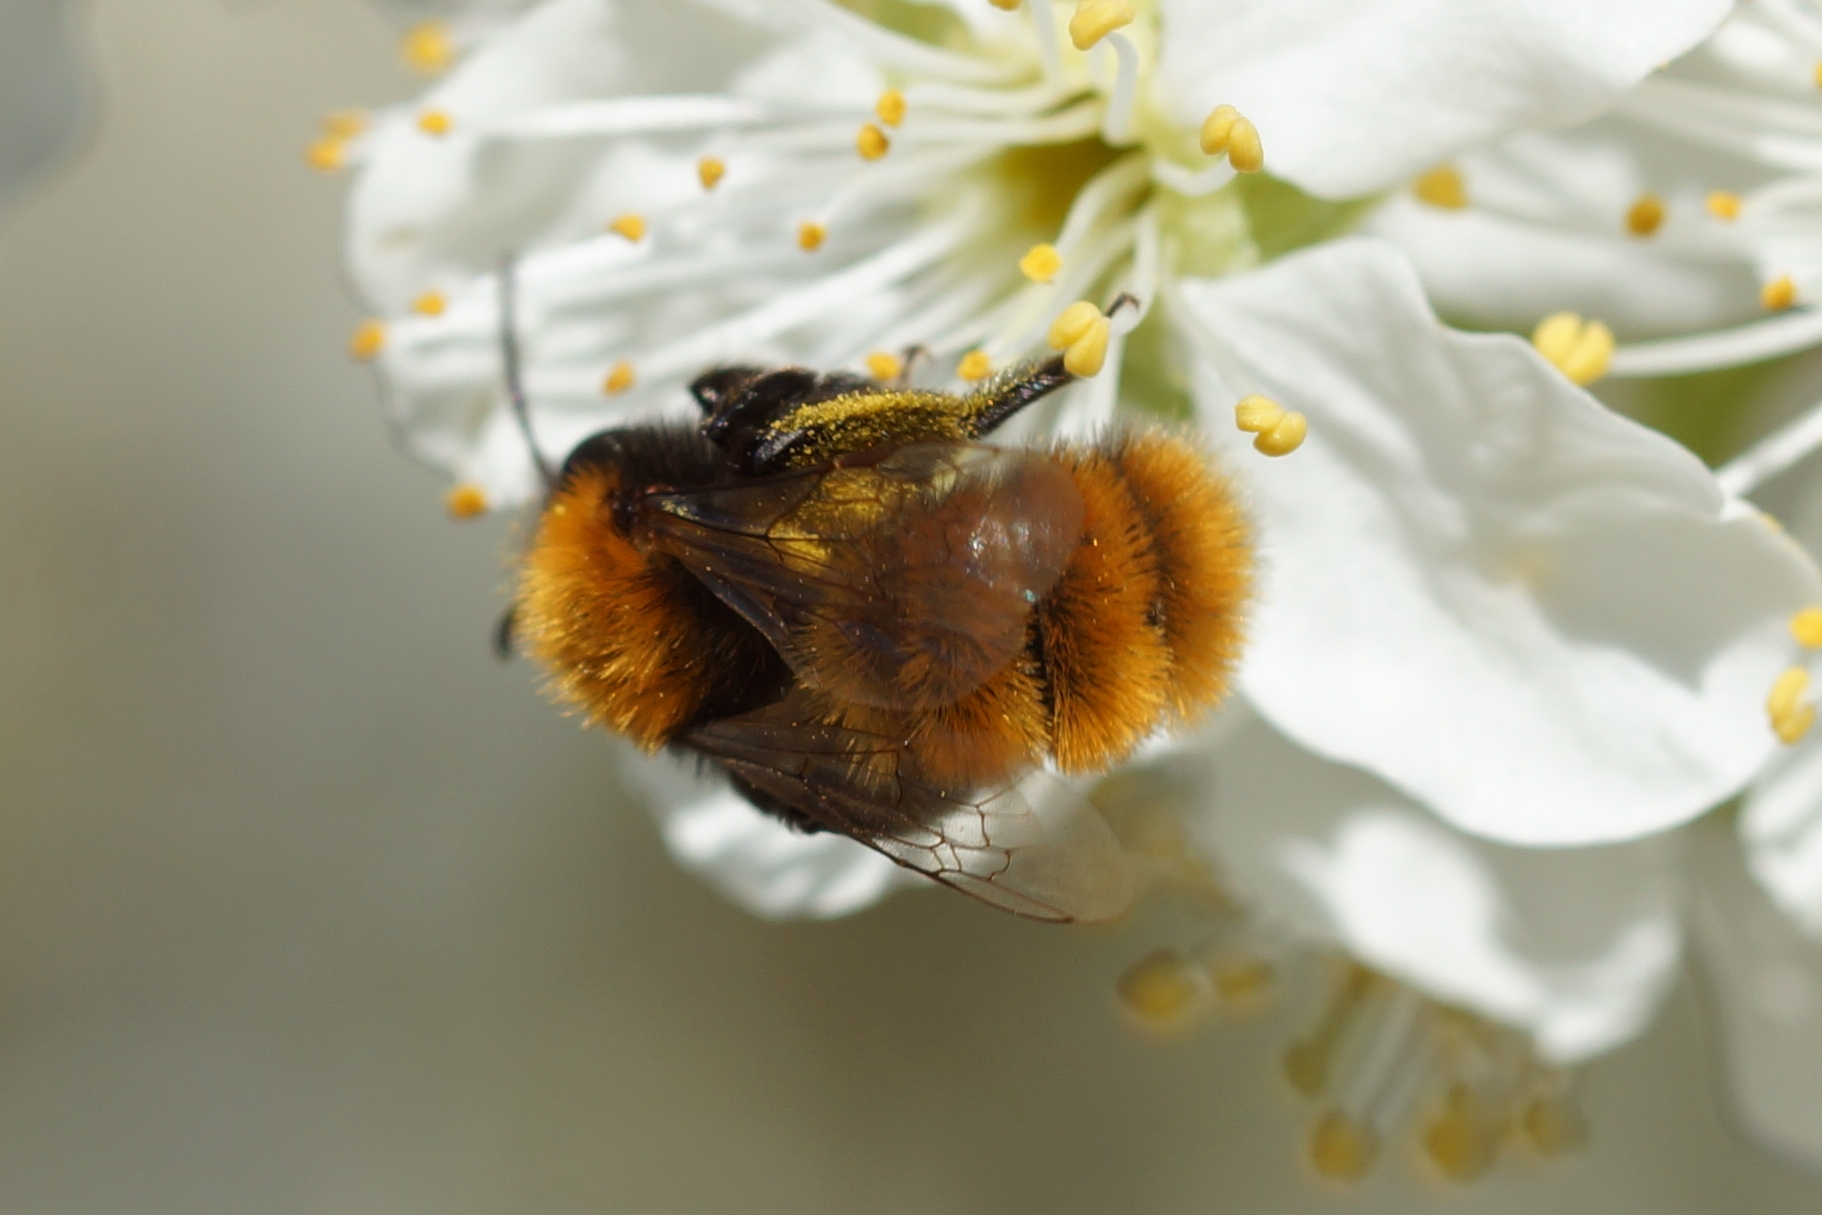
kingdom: Animalia
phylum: Arthropoda
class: Insecta
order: Hymenoptera
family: Andrenidae
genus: Andrena
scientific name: Andrena fulva
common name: Rødpelset jordbi
